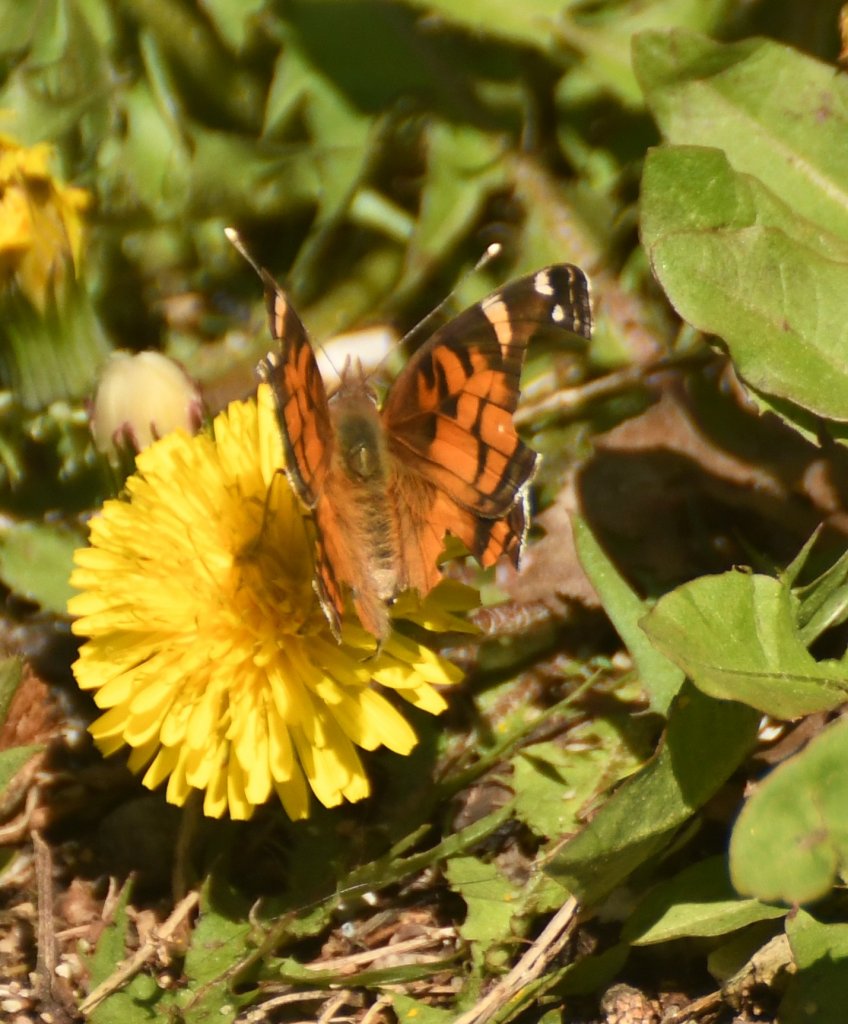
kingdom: Animalia
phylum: Arthropoda
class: Insecta
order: Lepidoptera
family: Nymphalidae
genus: Vanessa
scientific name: Vanessa virginiensis
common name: American Lady
